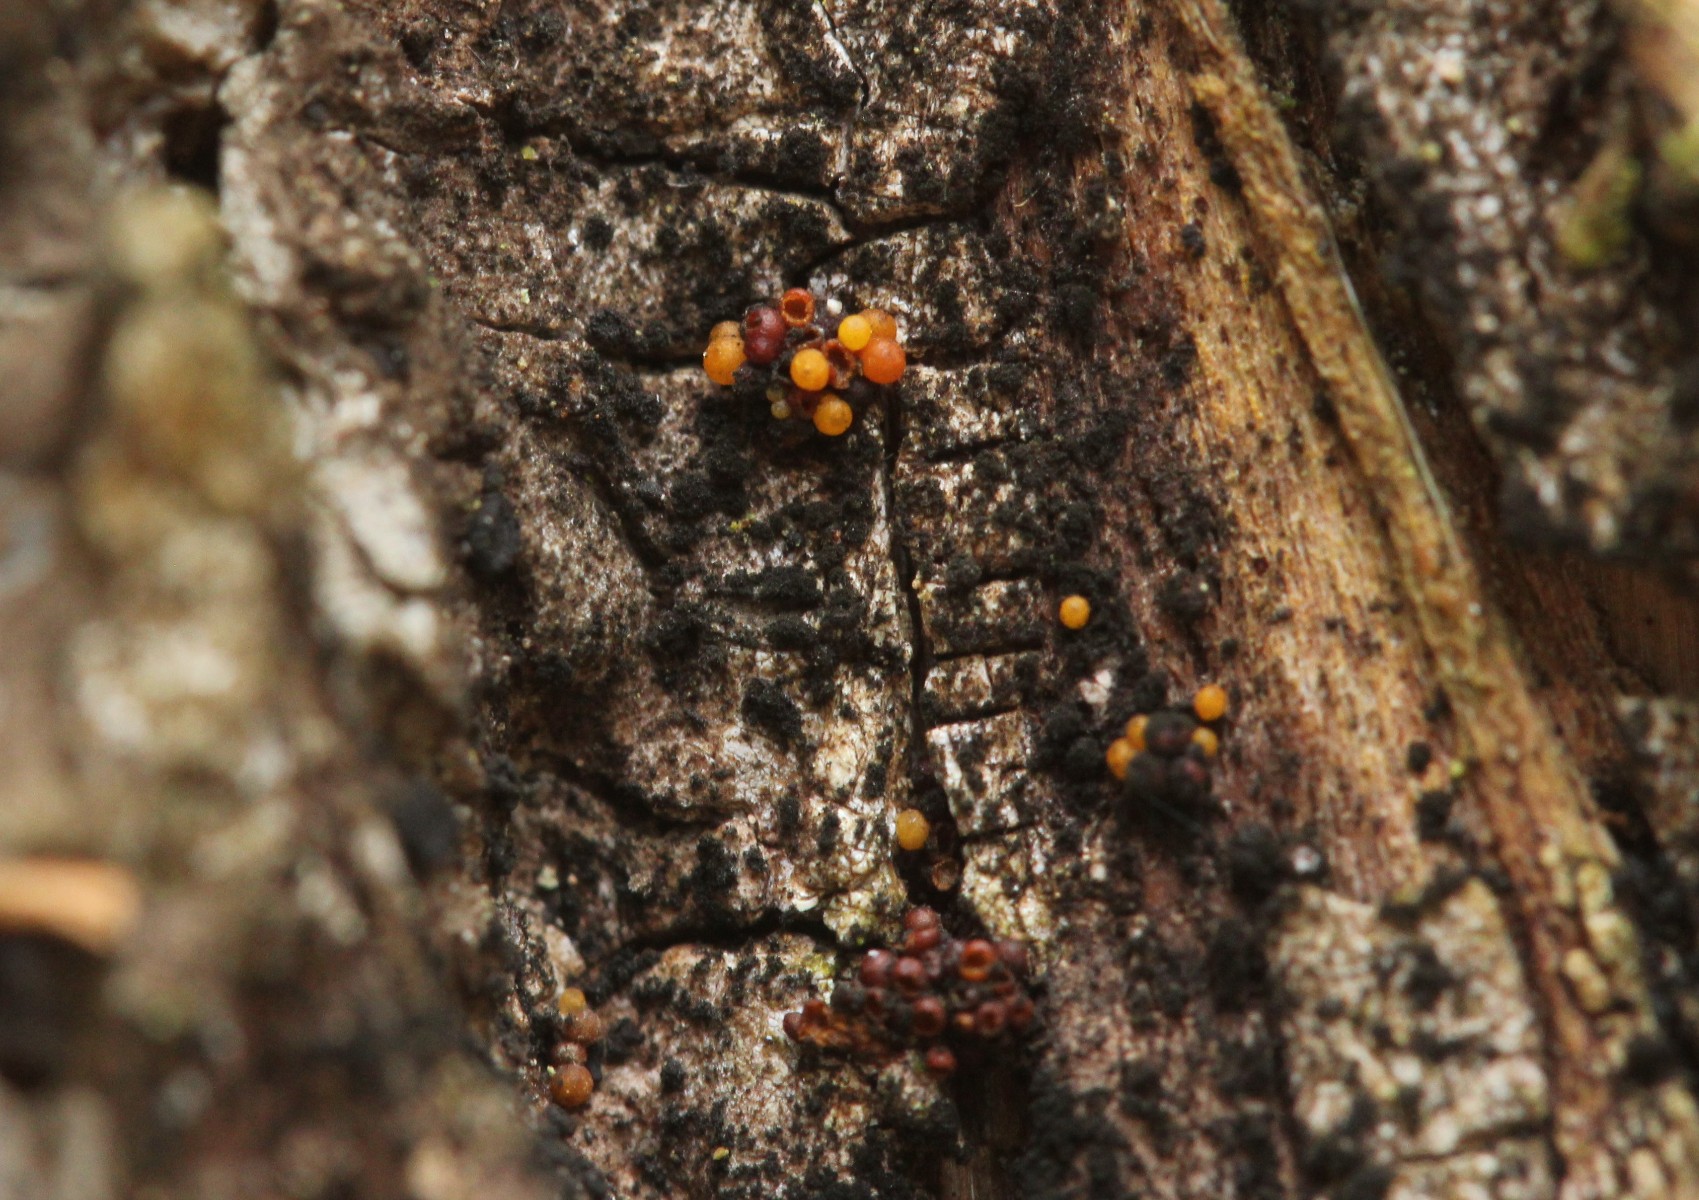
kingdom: Fungi
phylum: Ascomycota
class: Sordariomycetes
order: Hypocreales
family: Nectriaceae
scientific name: Nectriaceae
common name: cinnobersvampfamilien
